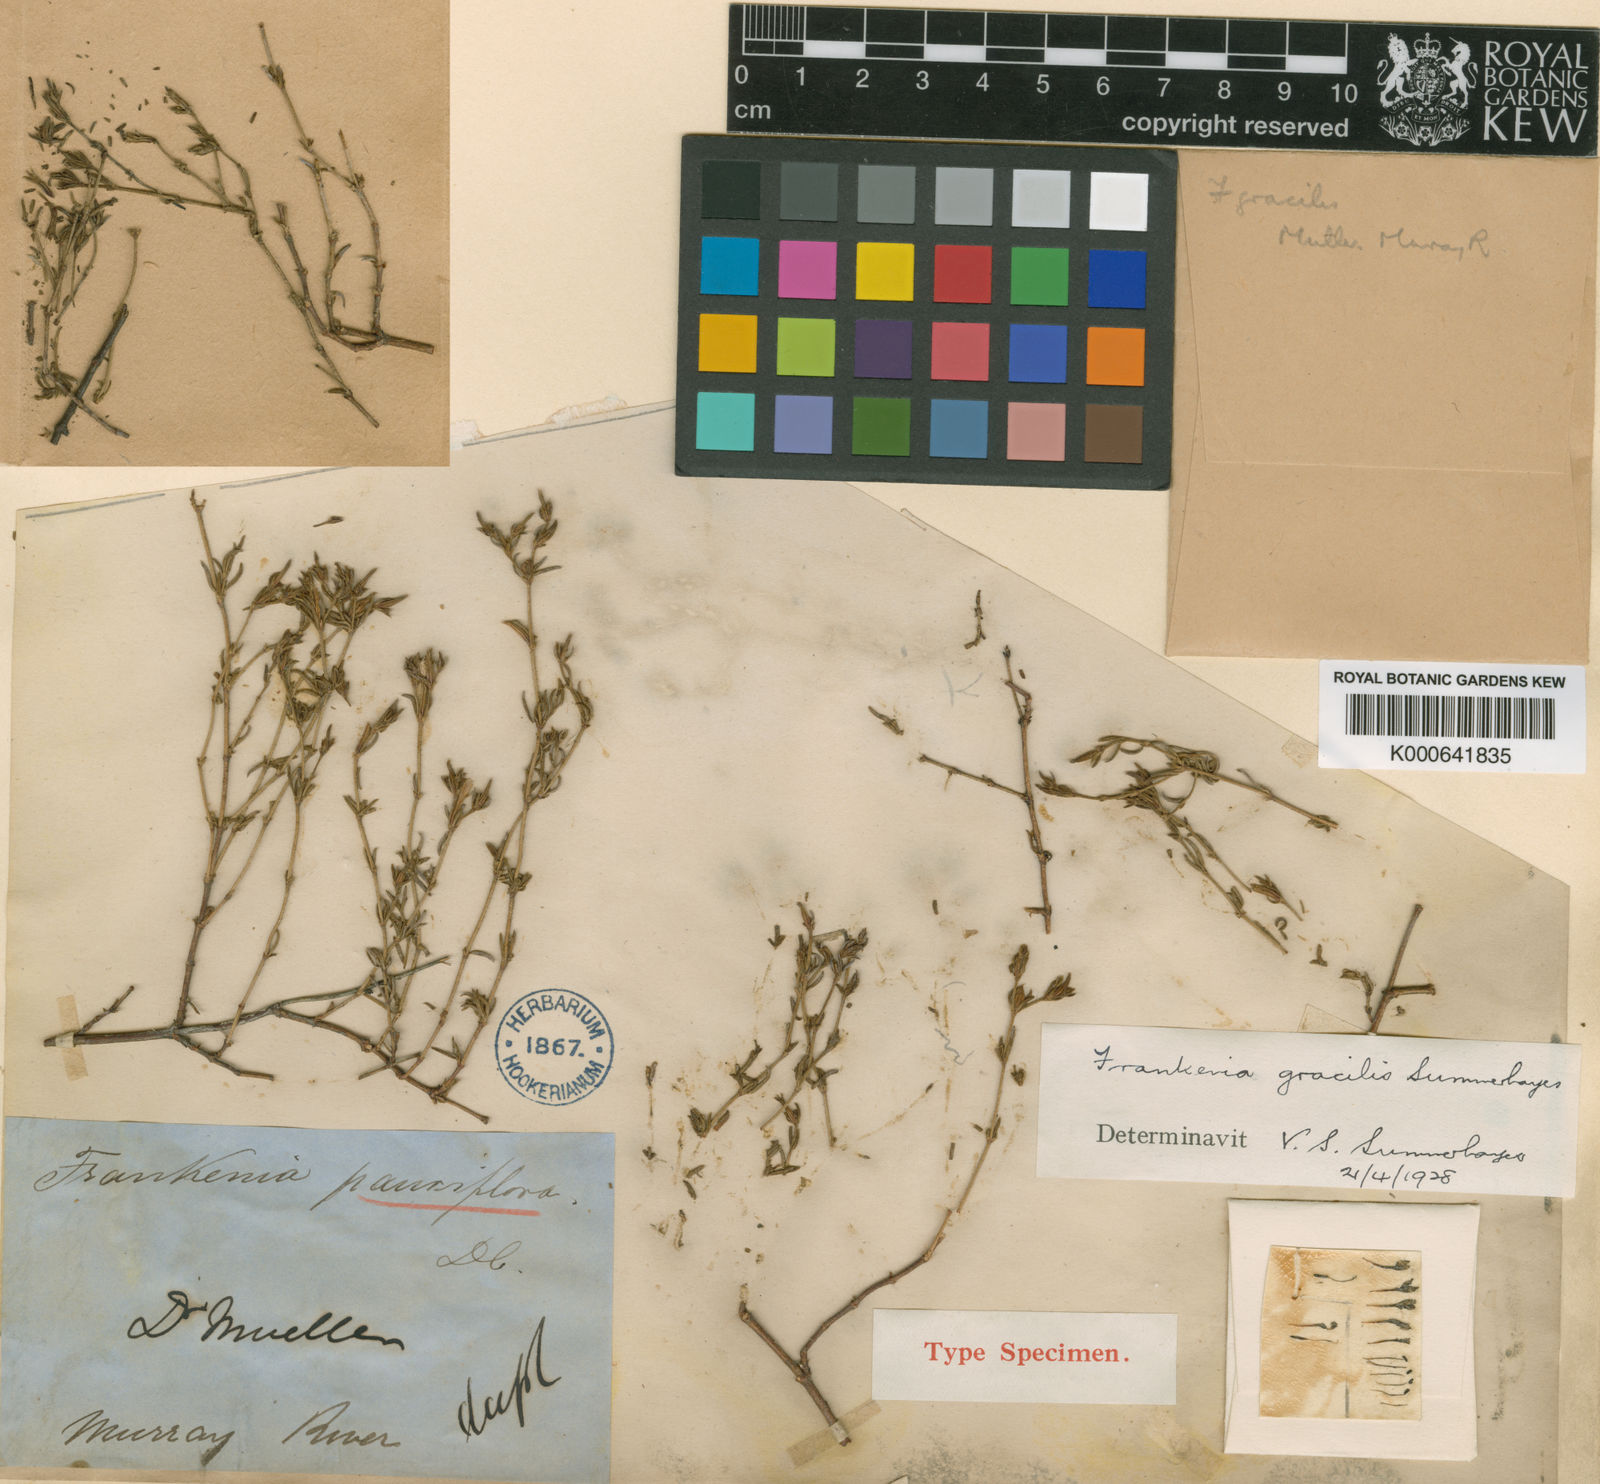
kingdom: Plantae
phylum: Tracheophyta
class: Magnoliopsida
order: Caryophyllales
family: Frankeniaceae
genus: Frankenia
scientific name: Frankenia gracilis
